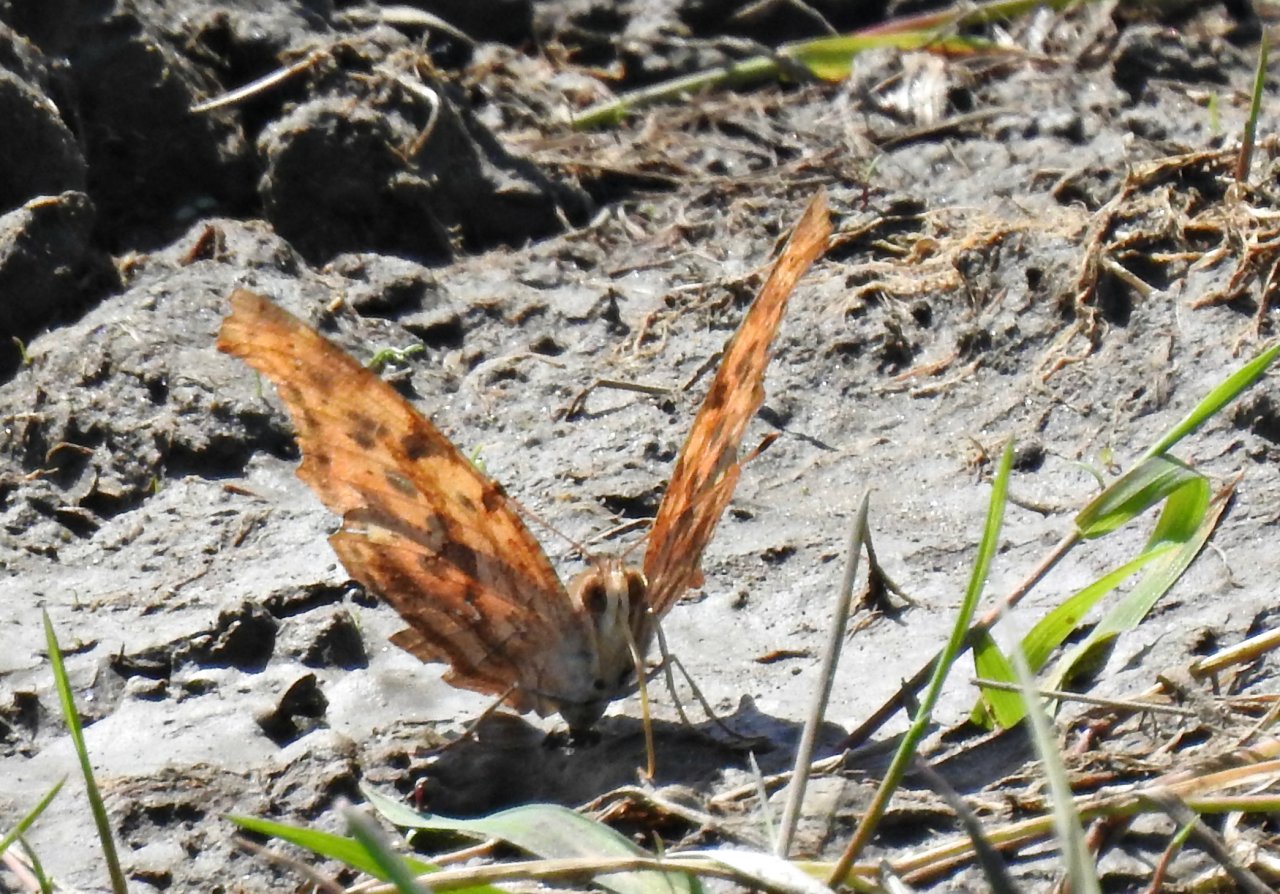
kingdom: Animalia
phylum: Arthropoda
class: Insecta
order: Lepidoptera
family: Nymphalidae
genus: Polygonia
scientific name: Polygonia interrogationis
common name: Question Mark
